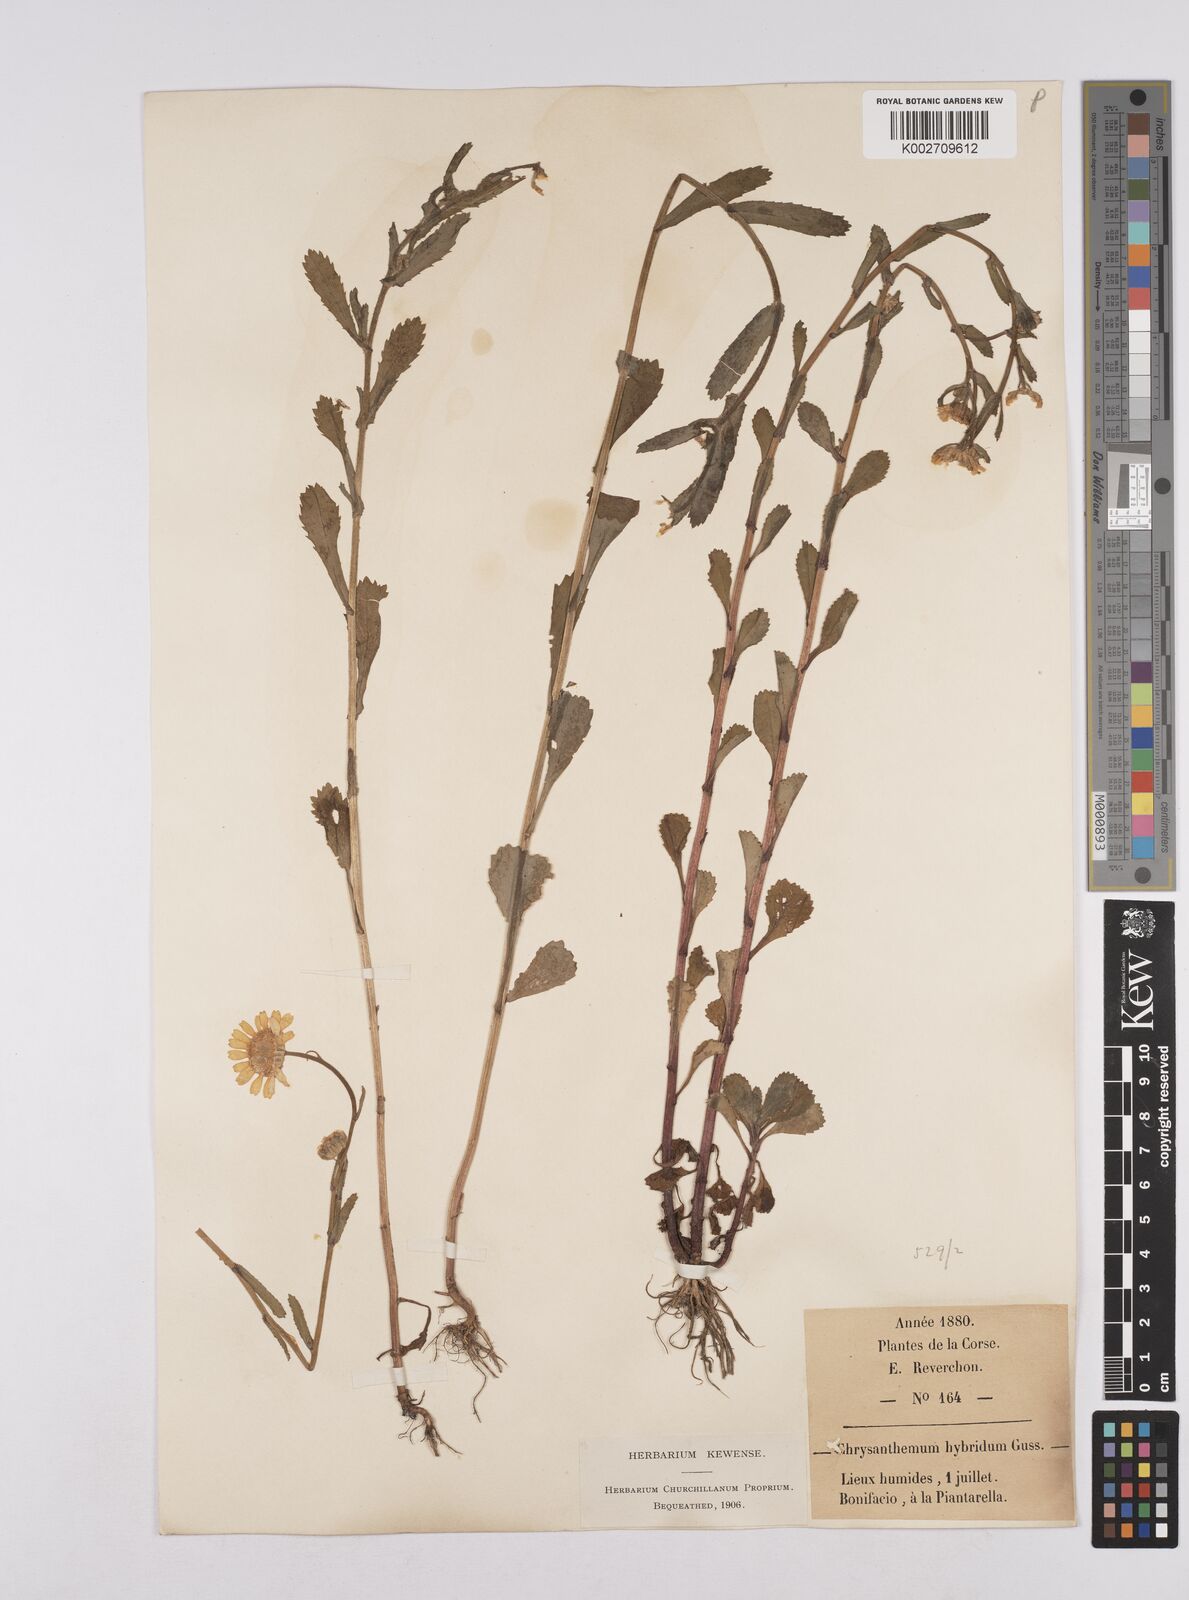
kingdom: Plantae
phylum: Tracheophyta
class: Magnoliopsida
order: Asterales
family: Asteraceae
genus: Coleostephus
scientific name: Coleostephus paludosus
